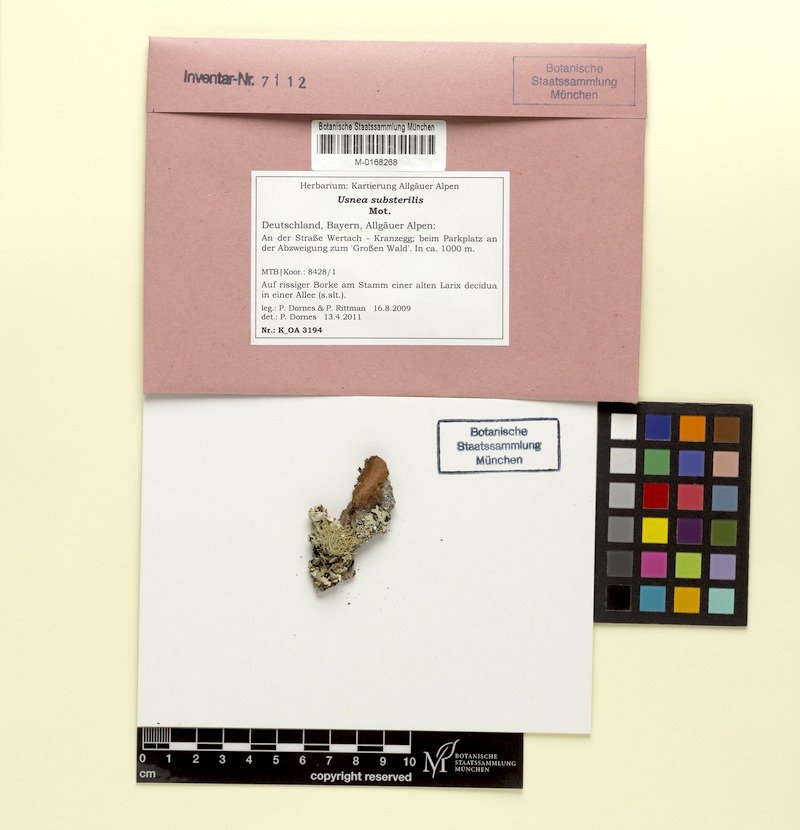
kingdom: Fungi
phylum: Ascomycota
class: Lecanoromycetes
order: Lecanorales
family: Parmeliaceae
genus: Usnea
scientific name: Usnea substerilis
